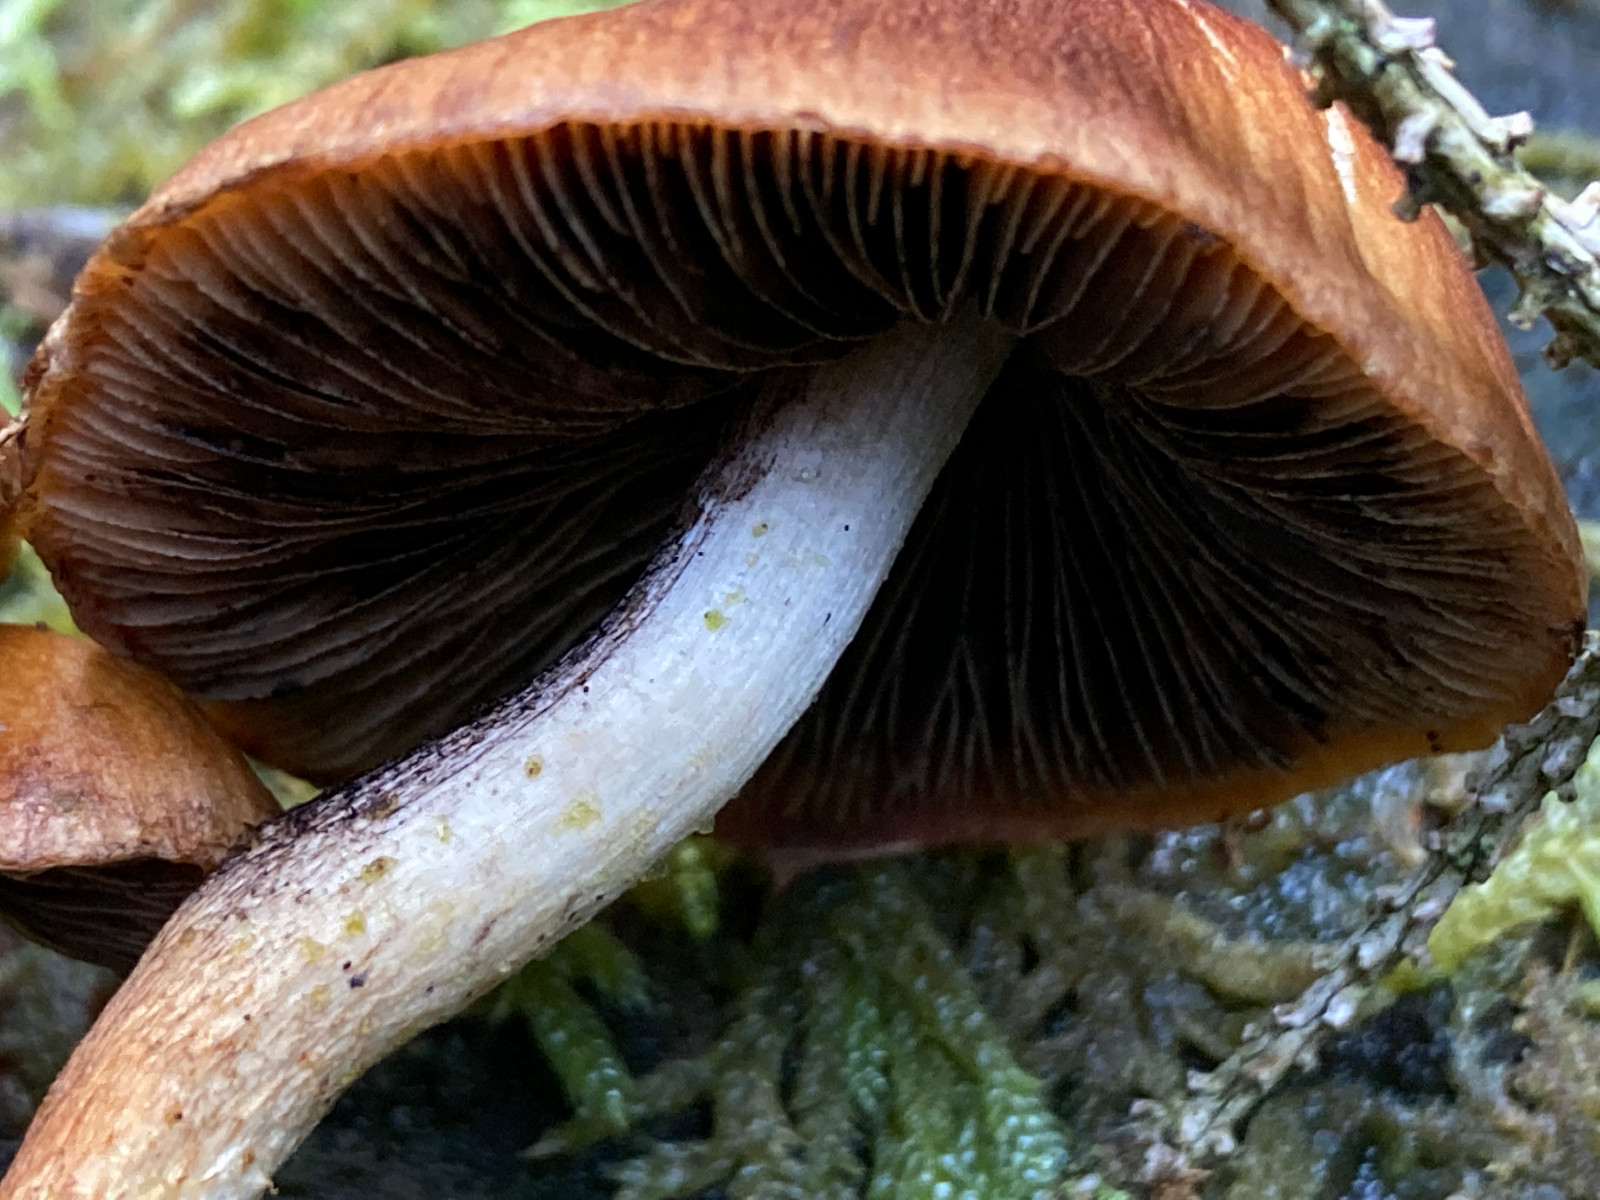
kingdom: Fungi
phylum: Basidiomycota
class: Agaricomycetes
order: Agaricales
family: Psathyrellaceae
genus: Psathyrella
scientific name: Psathyrella pertinax
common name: gran-mørkhat
